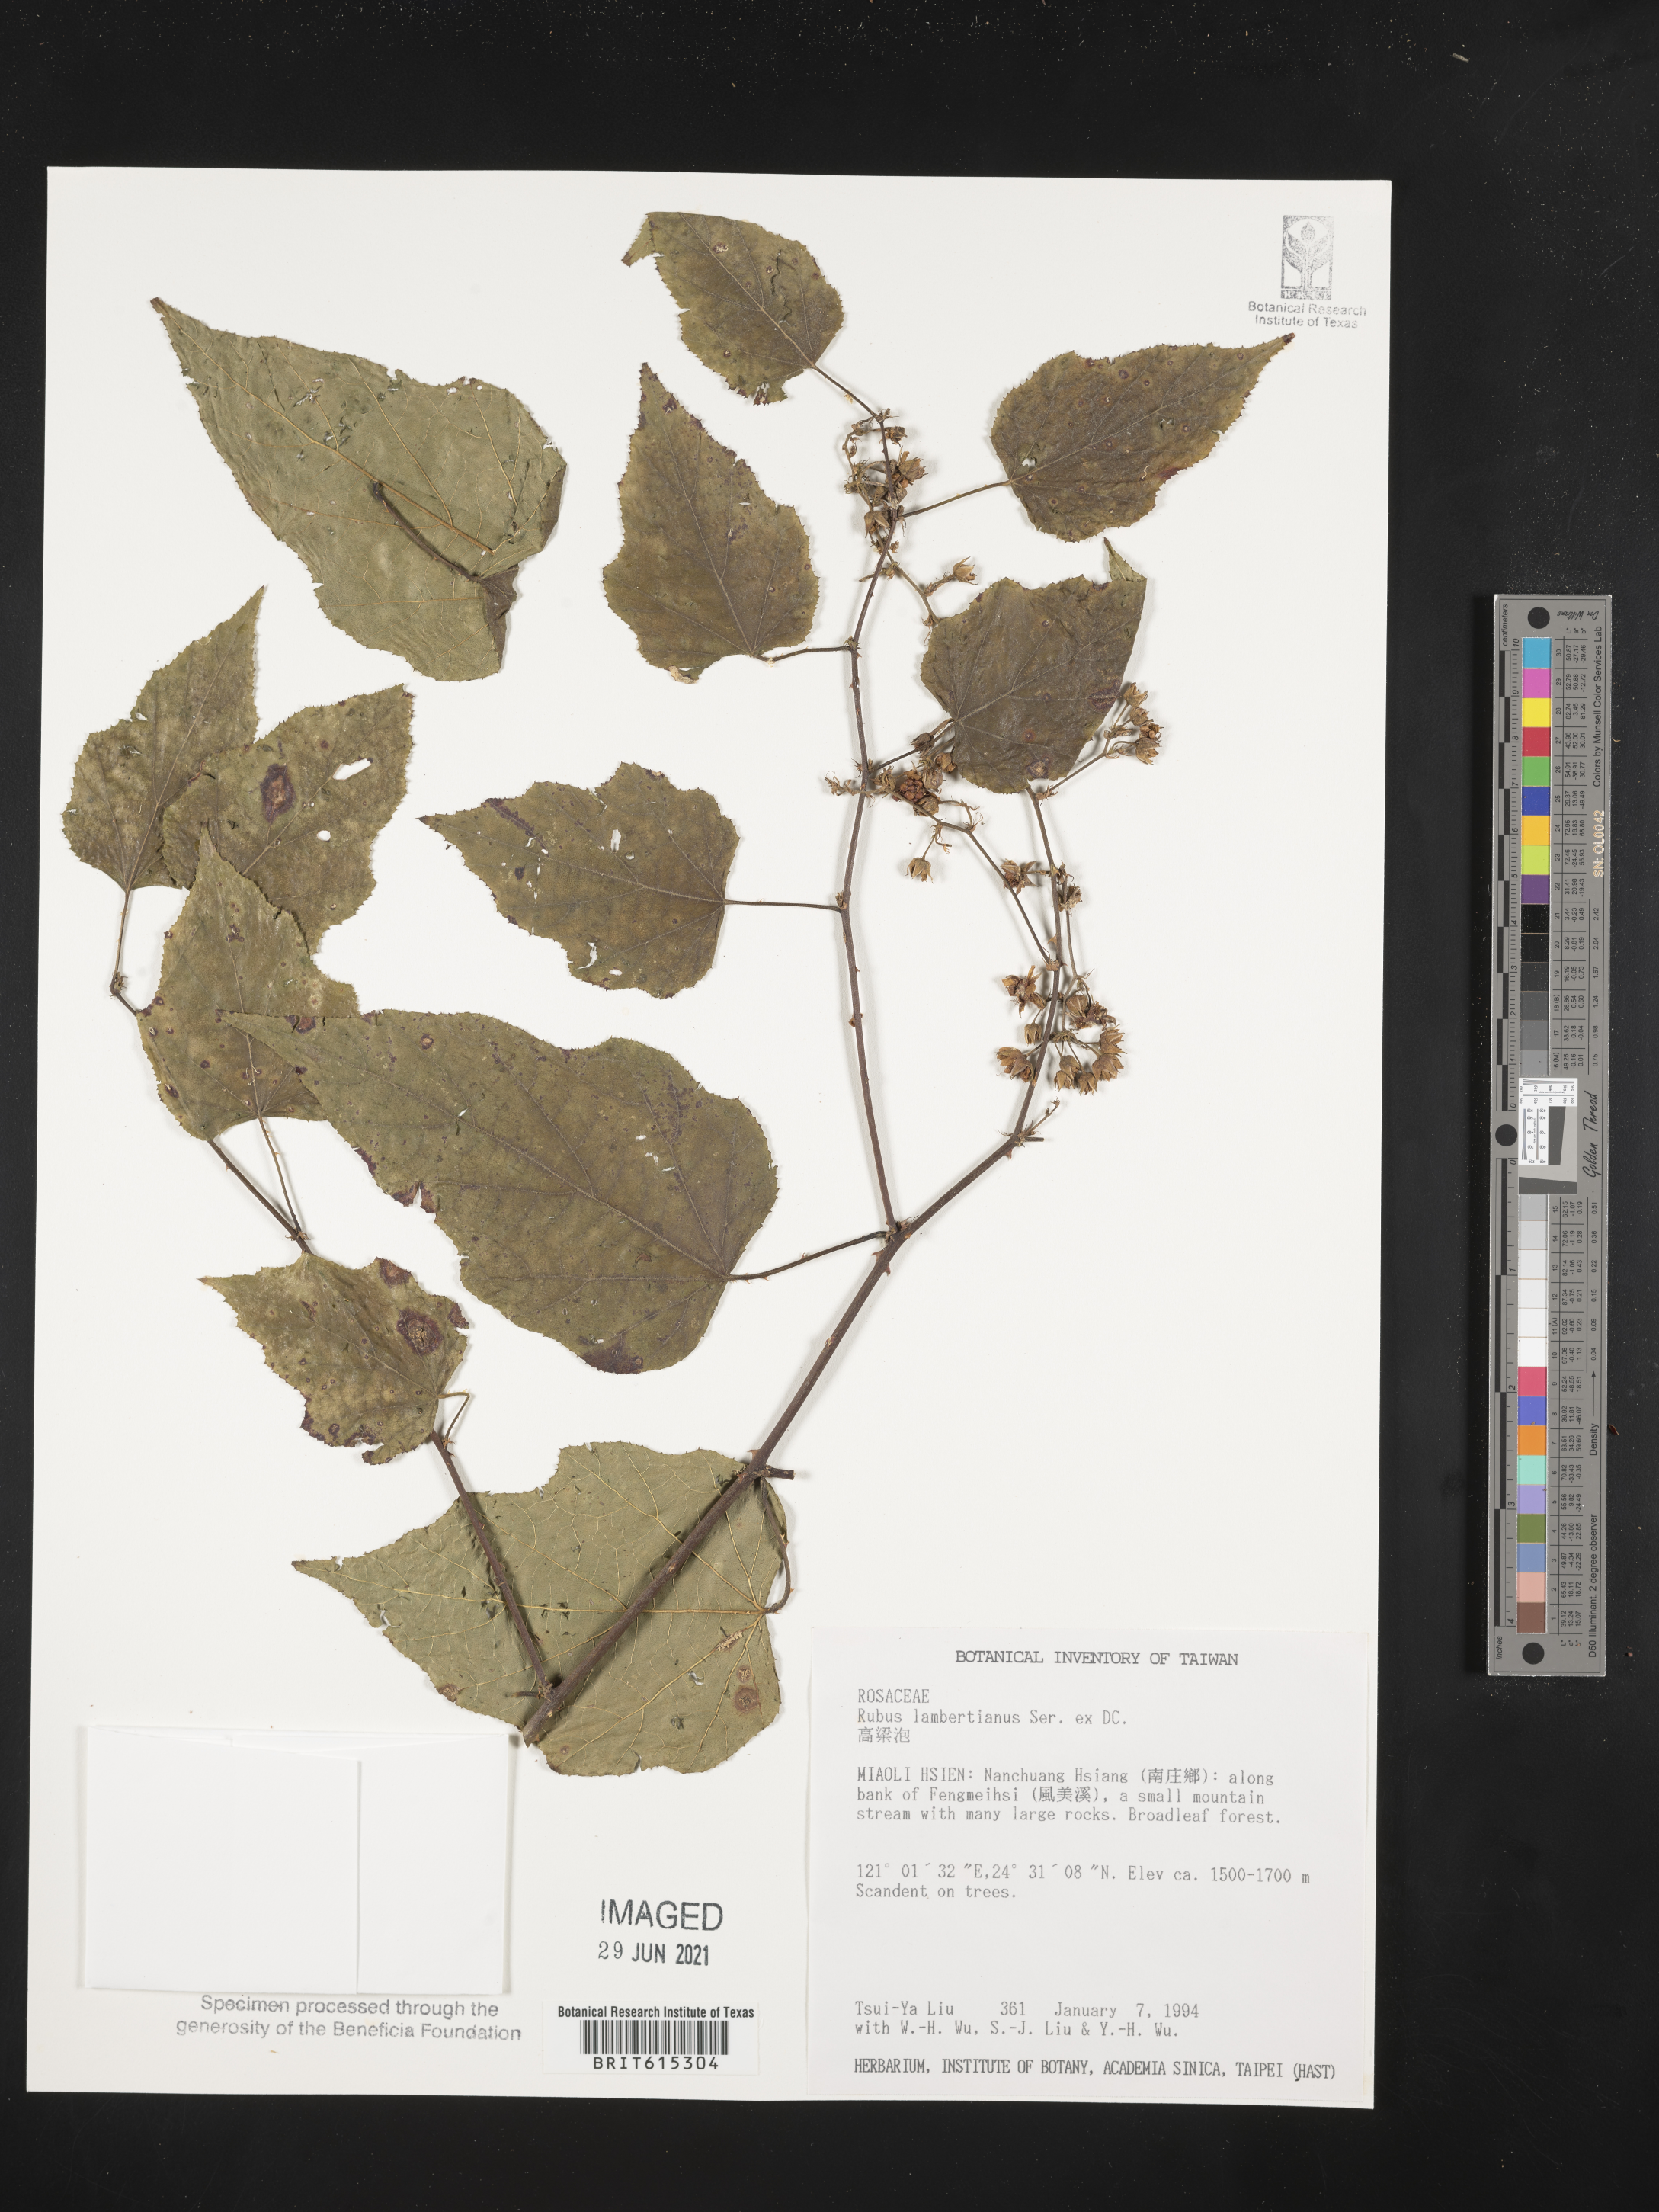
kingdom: Plantae
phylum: Tracheophyta
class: Magnoliopsida
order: Rosales
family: Rosaceae
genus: Rubus
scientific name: Rubus lambertianus
